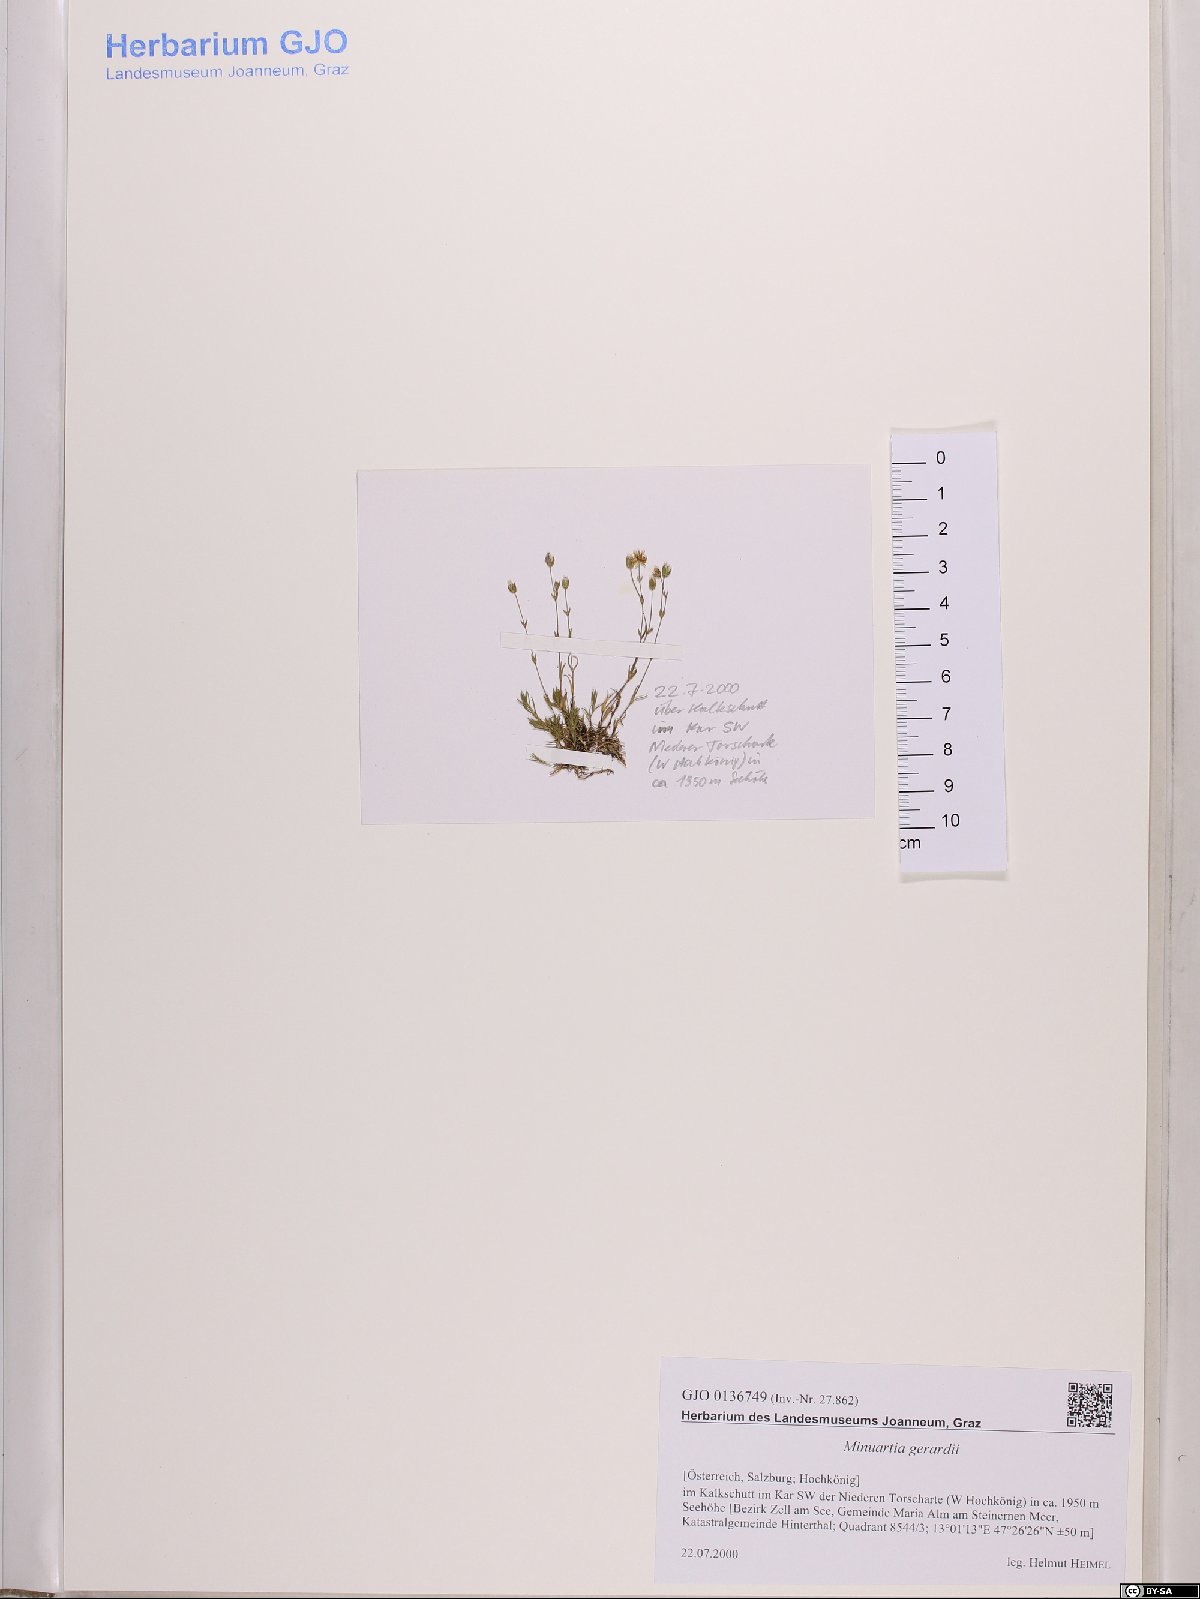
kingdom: Plantae
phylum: Tracheophyta
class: Magnoliopsida
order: Caryophyllales
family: Caryophyllaceae
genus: Sabulina
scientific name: Sabulina verna
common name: Spring sandwort
